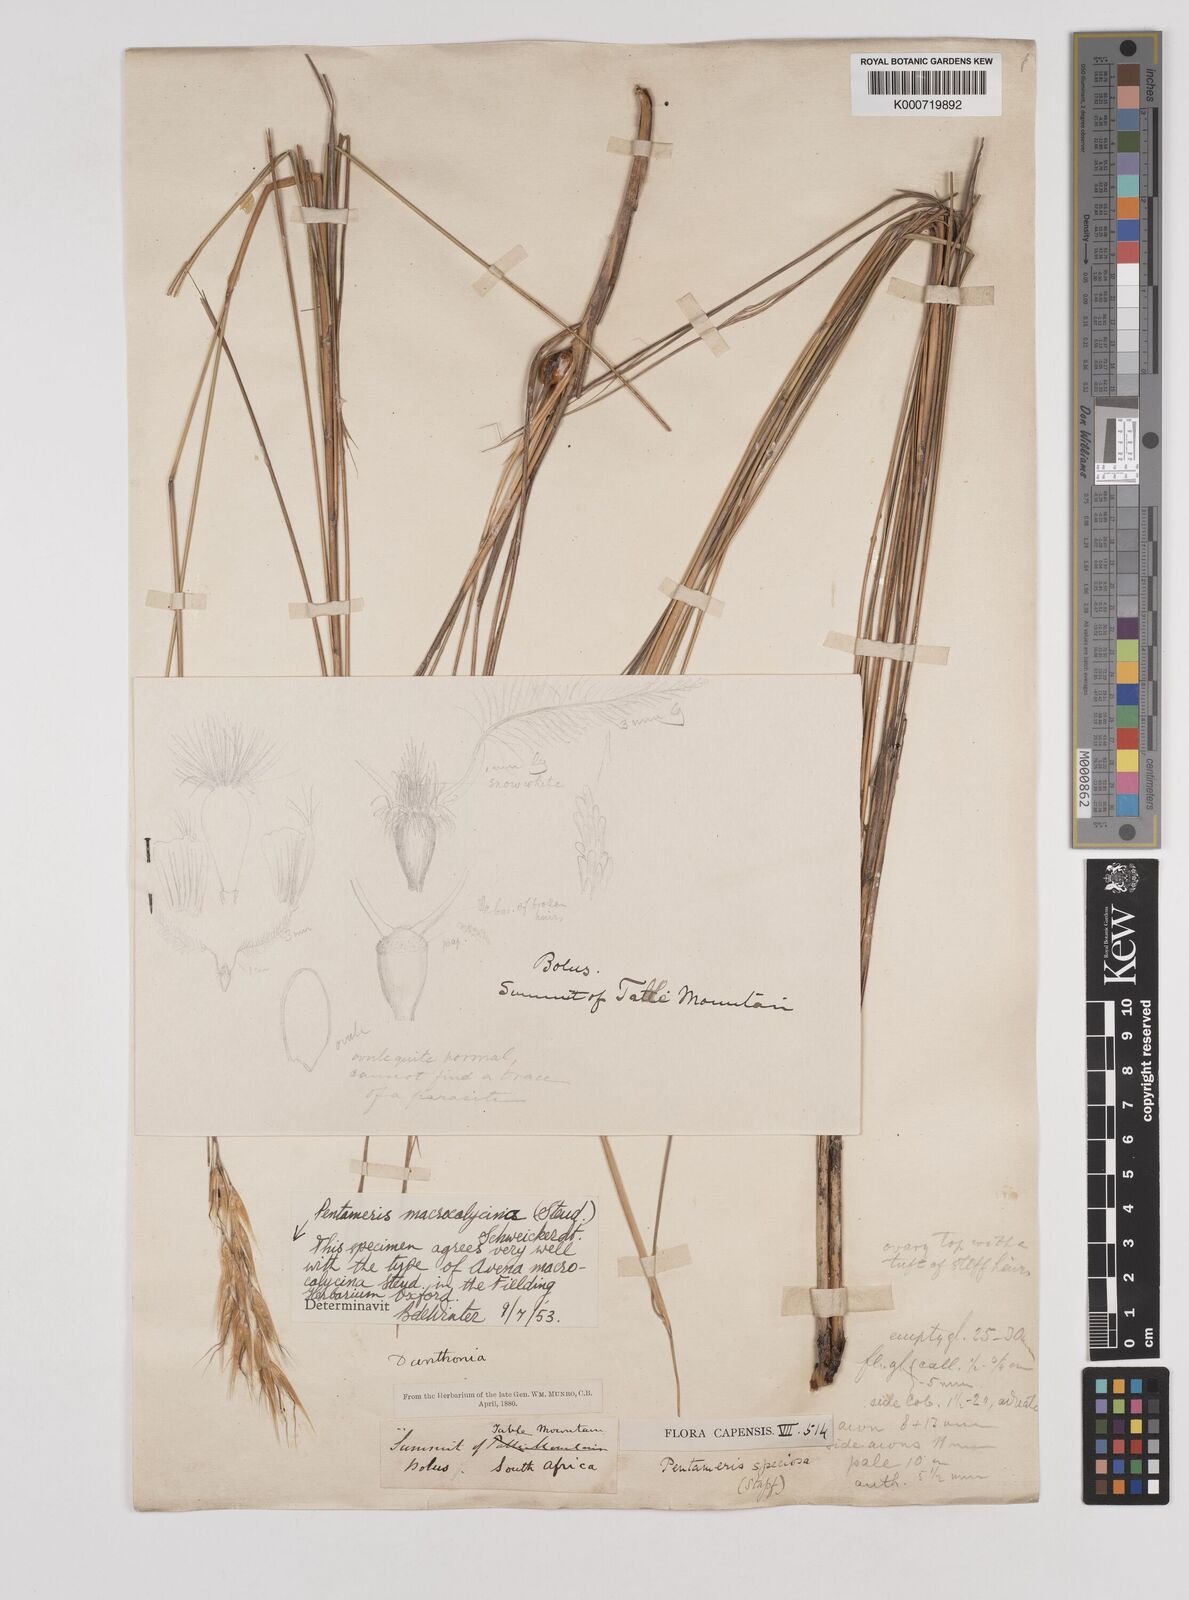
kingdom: Plantae
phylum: Tracheophyta
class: Liliopsida
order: Poales
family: Poaceae
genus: Pentameris
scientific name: Pentameris macrocalycina
